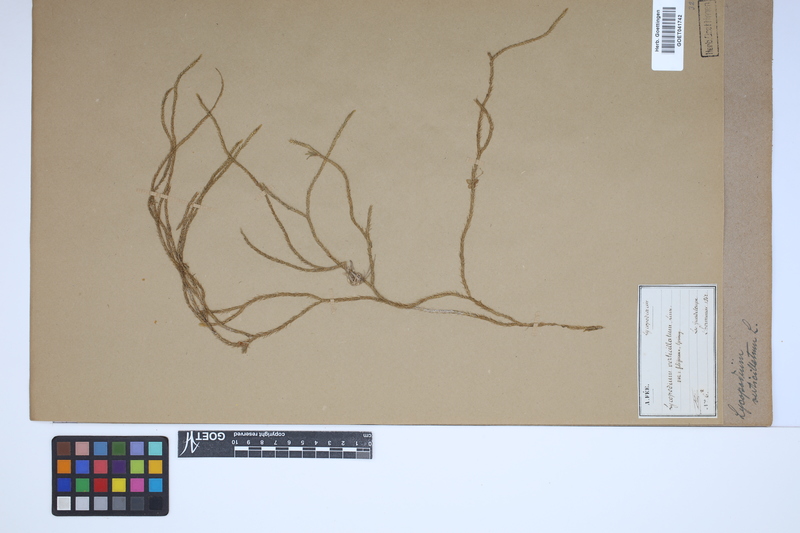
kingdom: Plantae
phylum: Tracheophyta
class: Lycopodiopsida
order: Lycopodiales
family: Lycopodiaceae
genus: Phlegmariurus
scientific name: Phlegmariurus verticillatus
